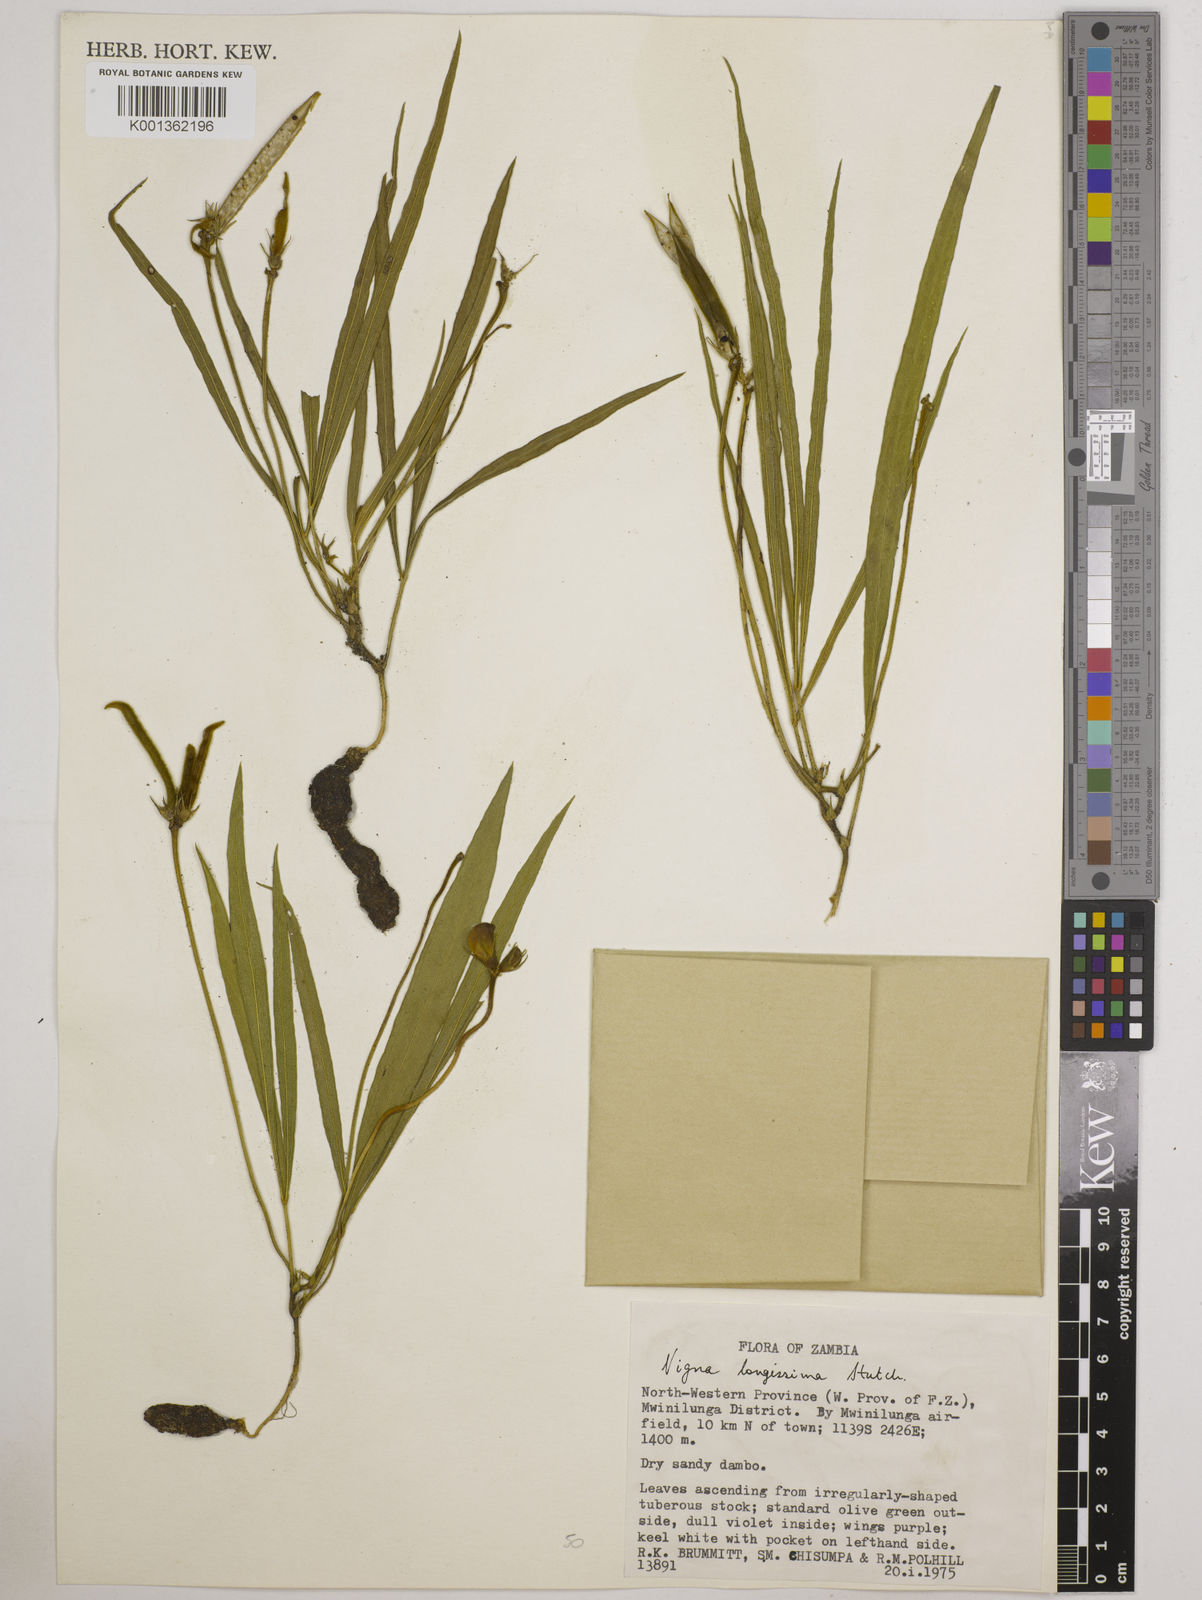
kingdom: Plantae
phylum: Tracheophyta
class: Magnoliopsida
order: Fabales
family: Fabaceae
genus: Vigna
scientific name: Vigna longissima
